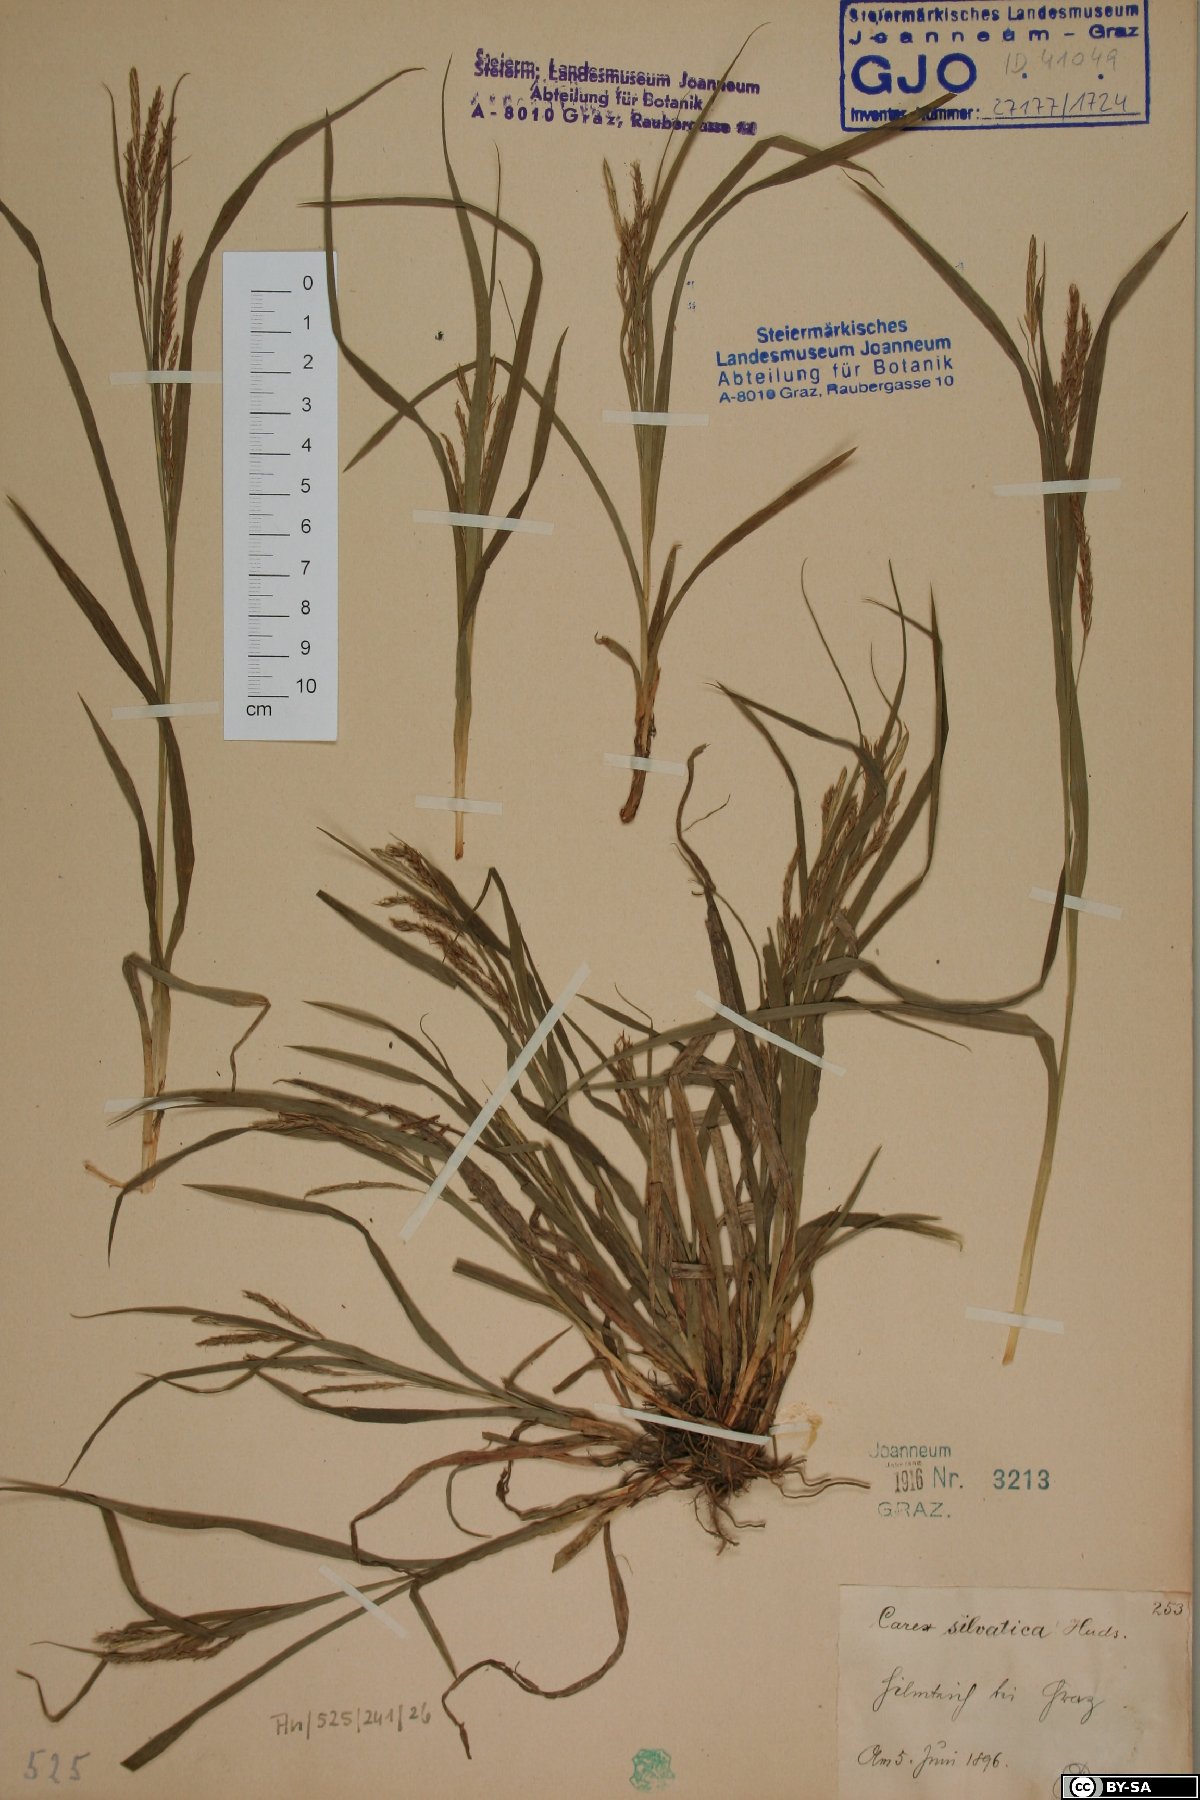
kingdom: Plantae
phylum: Tracheophyta
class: Liliopsida
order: Poales
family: Cyperaceae
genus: Carex
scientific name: Carex sylvatica
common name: Wood-sedge
